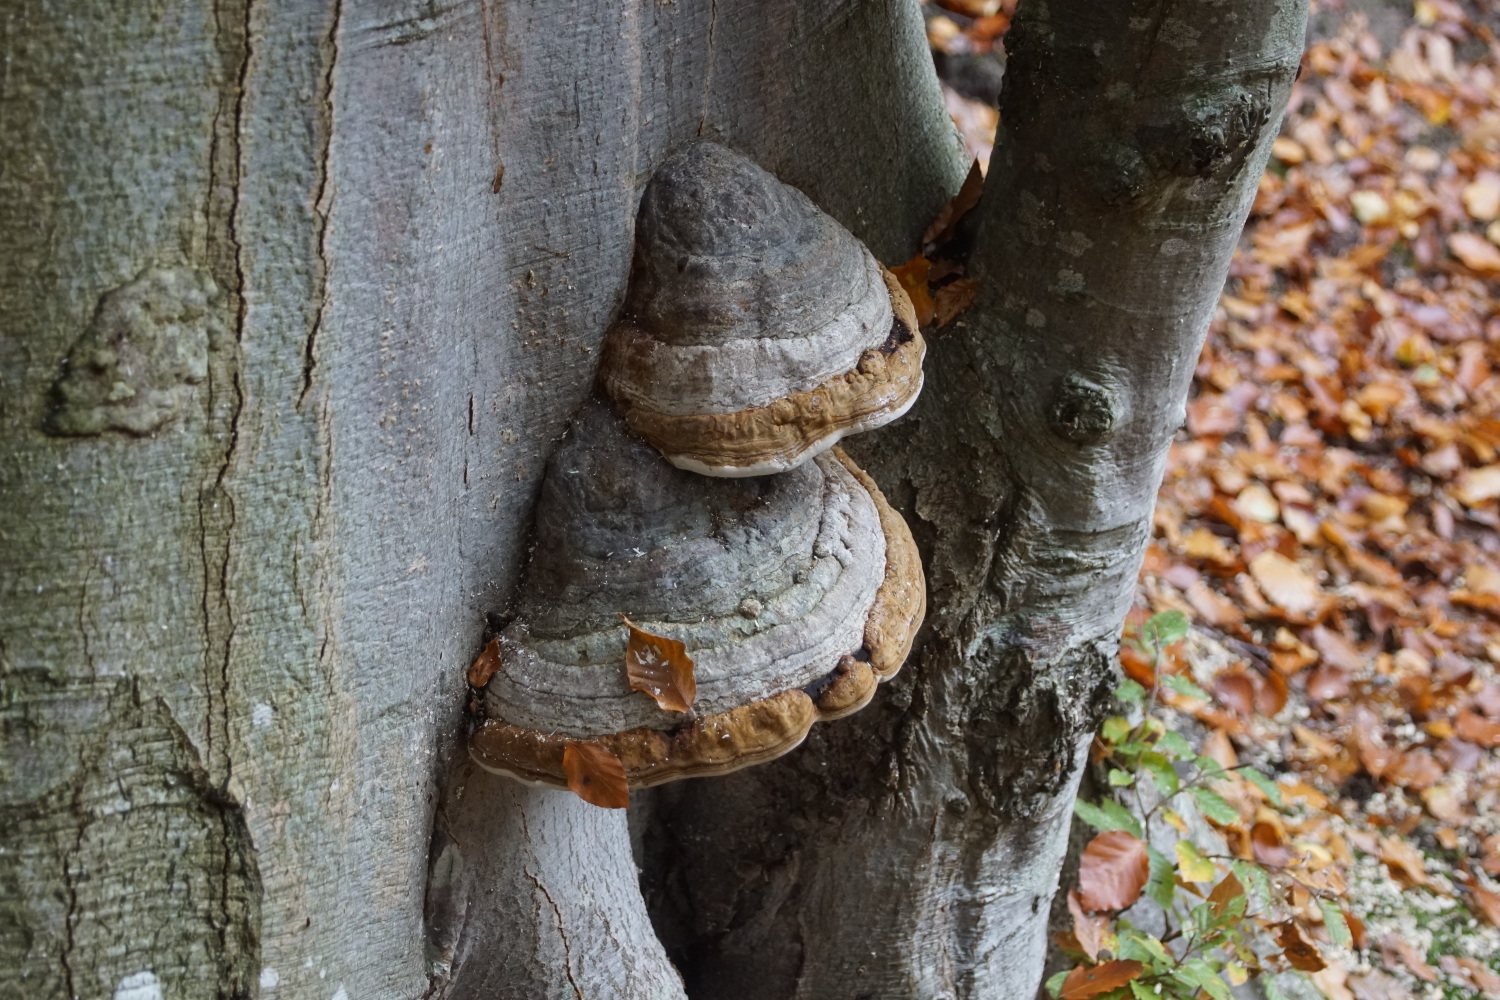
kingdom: Fungi
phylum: Basidiomycota
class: Agaricomycetes
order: Polyporales
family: Polyporaceae
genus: Fomes
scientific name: Fomes fomentarius
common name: tøndersvamp
